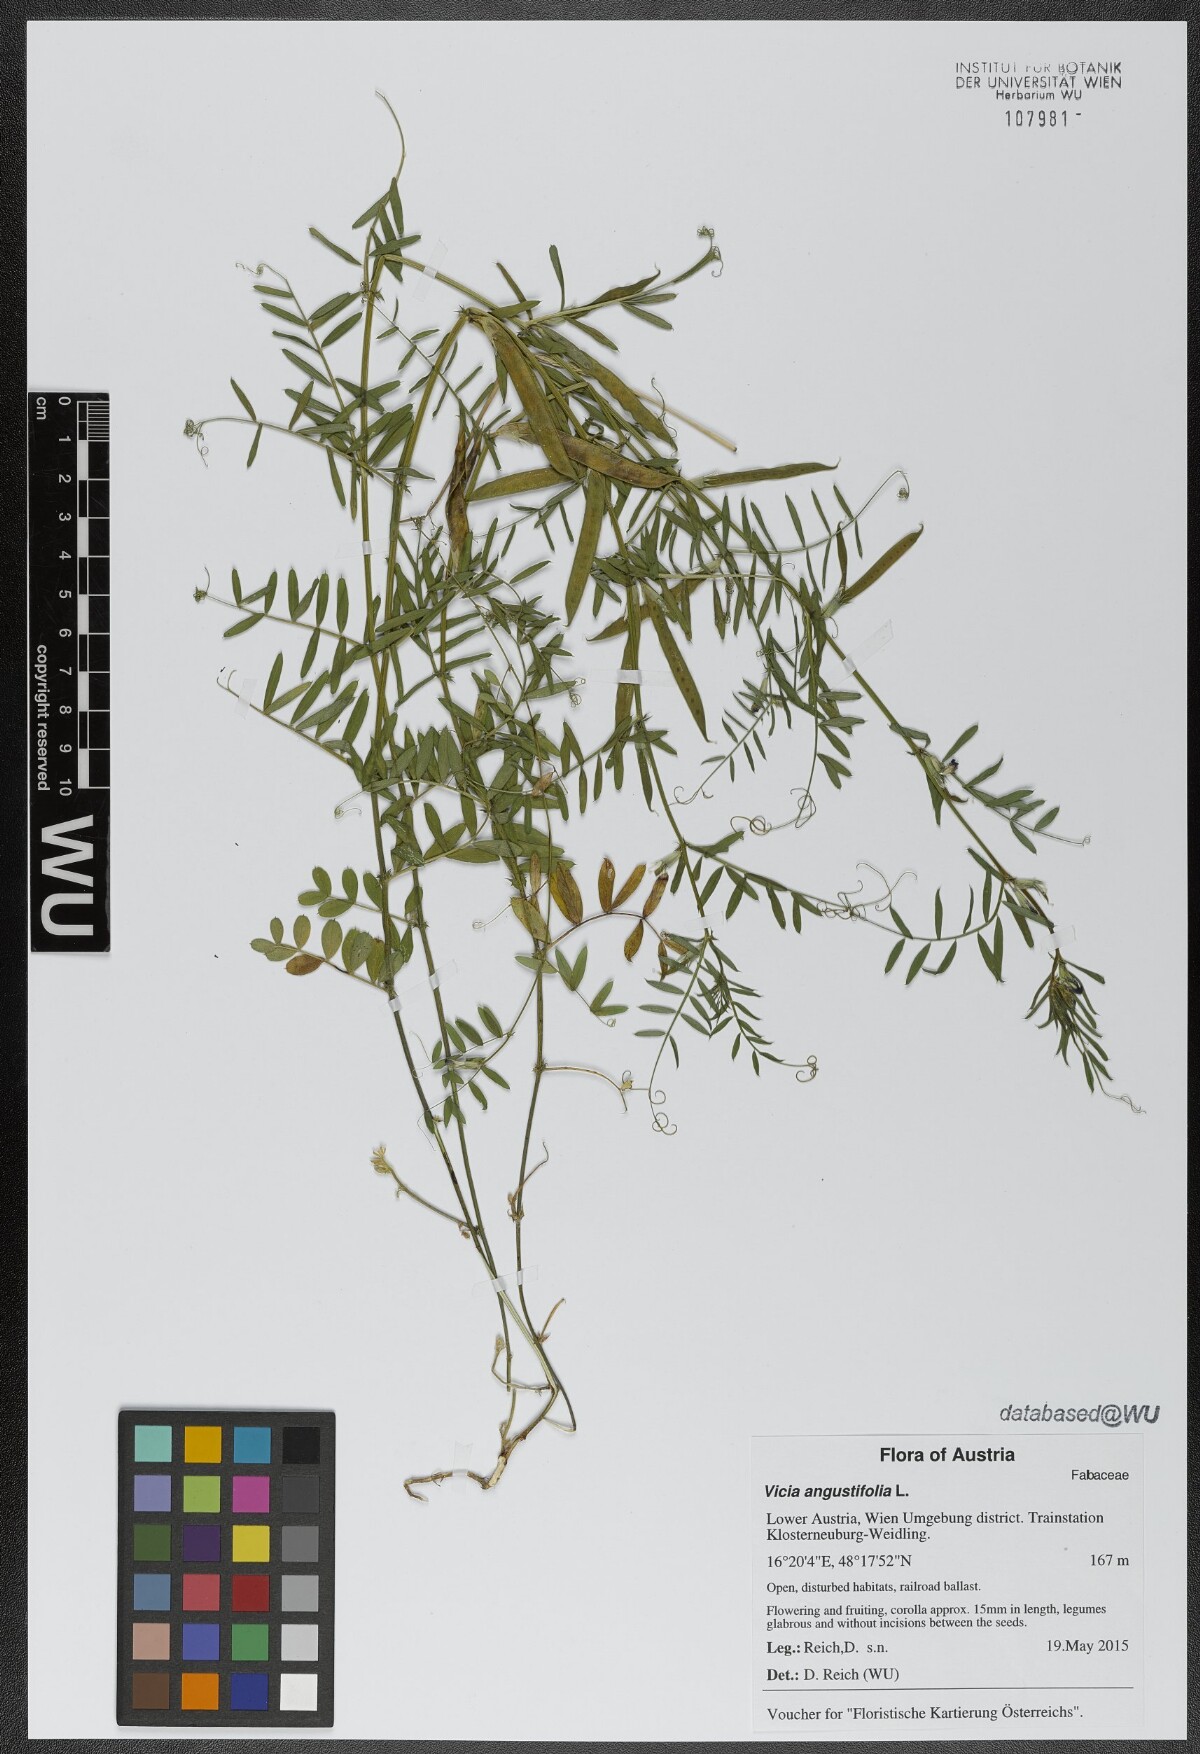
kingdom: Plantae
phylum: Tracheophyta
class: Magnoliopsida
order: Fabales
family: Fabaceae
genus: Vicia
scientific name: Vicia sativa
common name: Garden vetch
